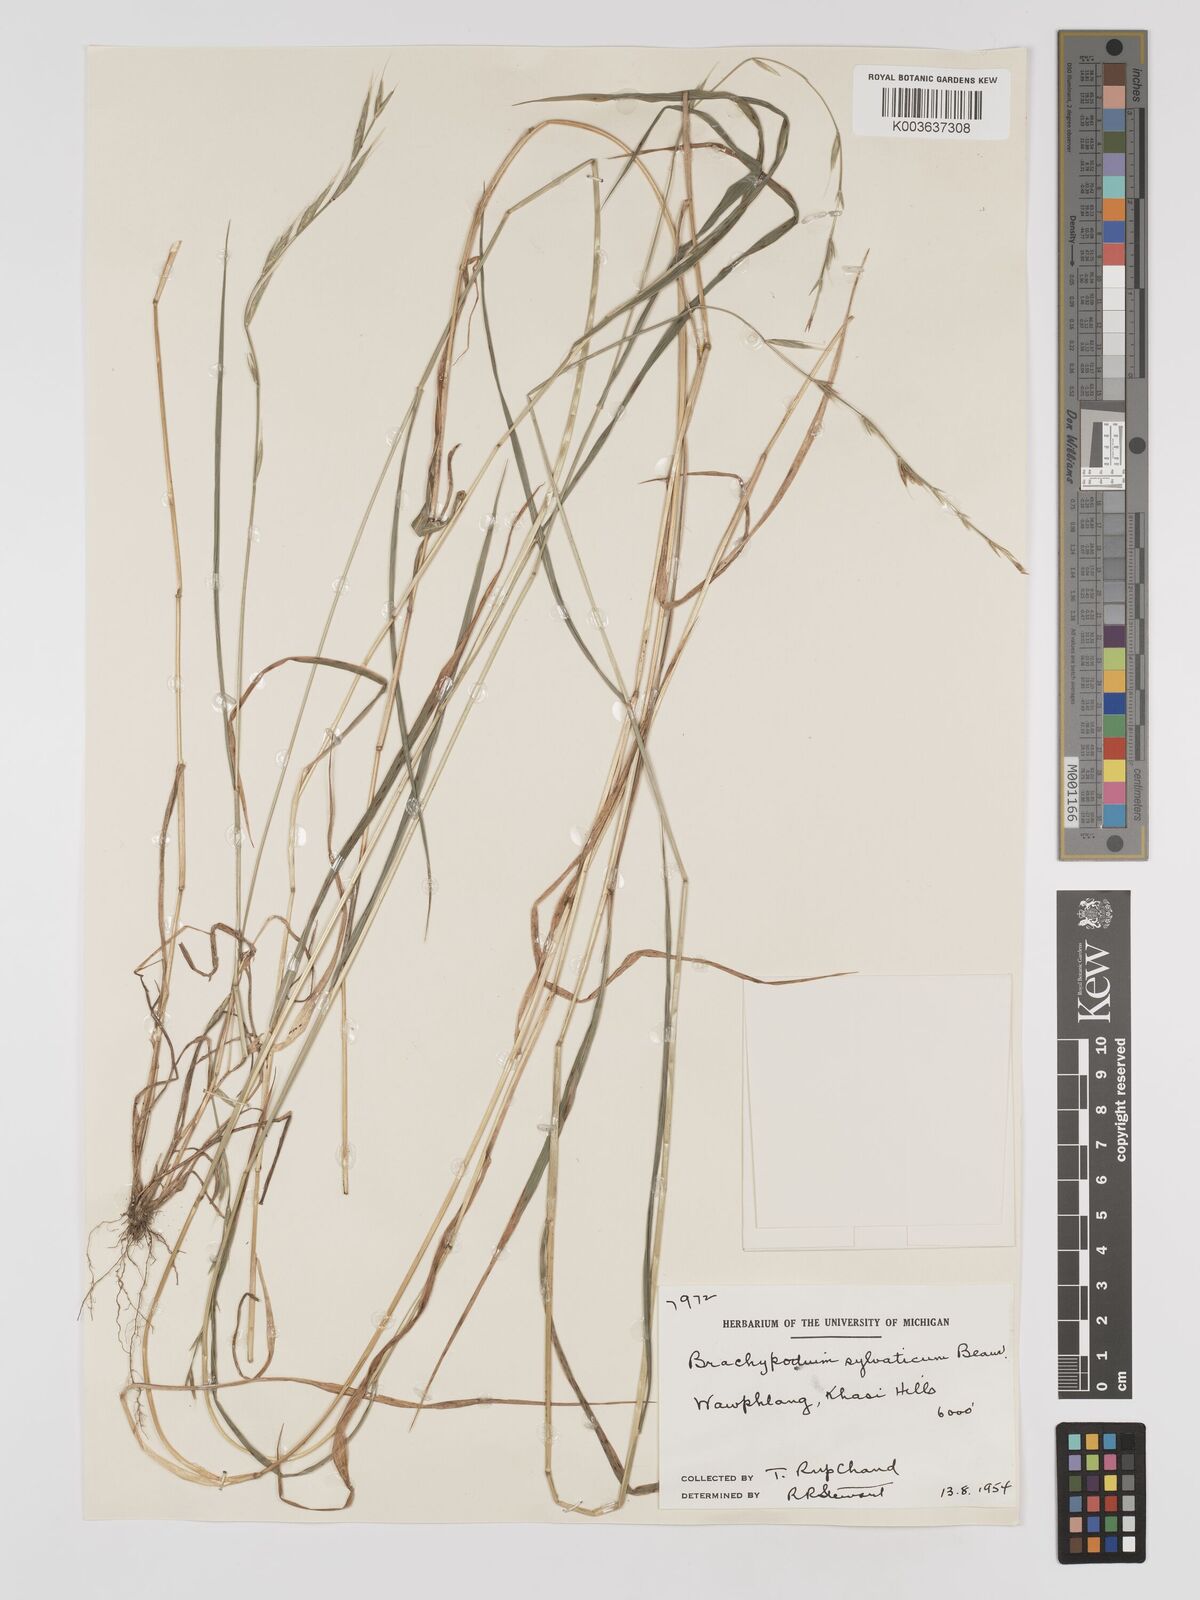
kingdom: Plantae
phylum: Tracheophyta
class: Liliopsida
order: Poales
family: Poaceae
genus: Brachypodium
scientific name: Brachypodium sylvaticum
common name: False-brome
